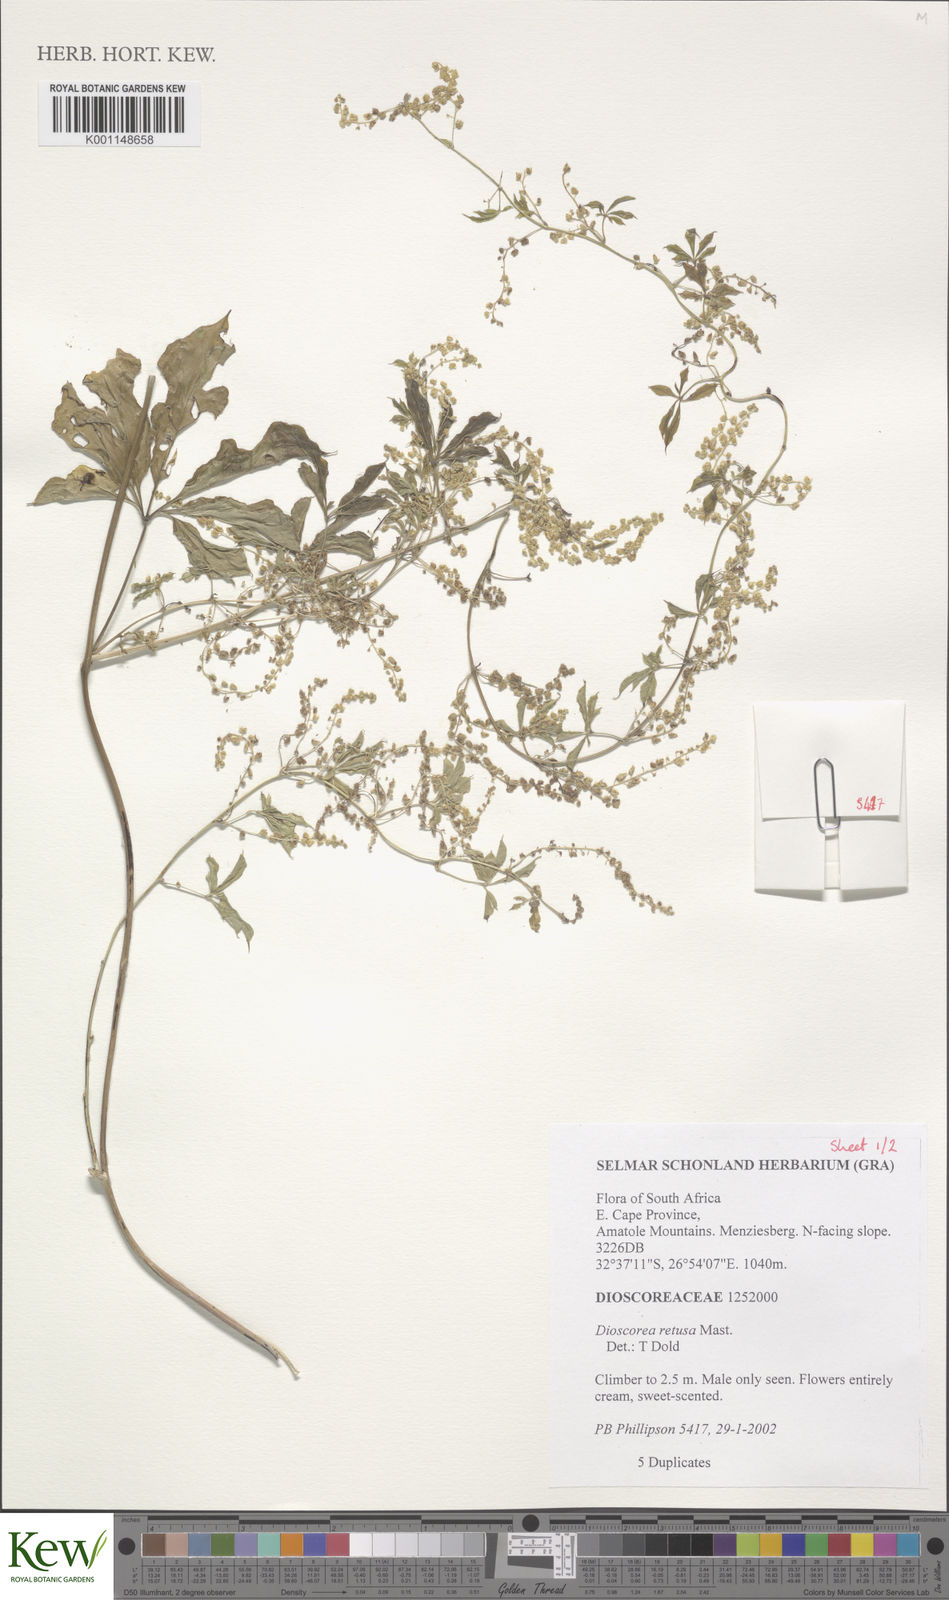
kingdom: Plantae
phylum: Tracheophyta
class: Liliopsida
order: Dioscoreales
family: Dioscoreaceae
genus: Dioscorea
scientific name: Dioscorea retusa
